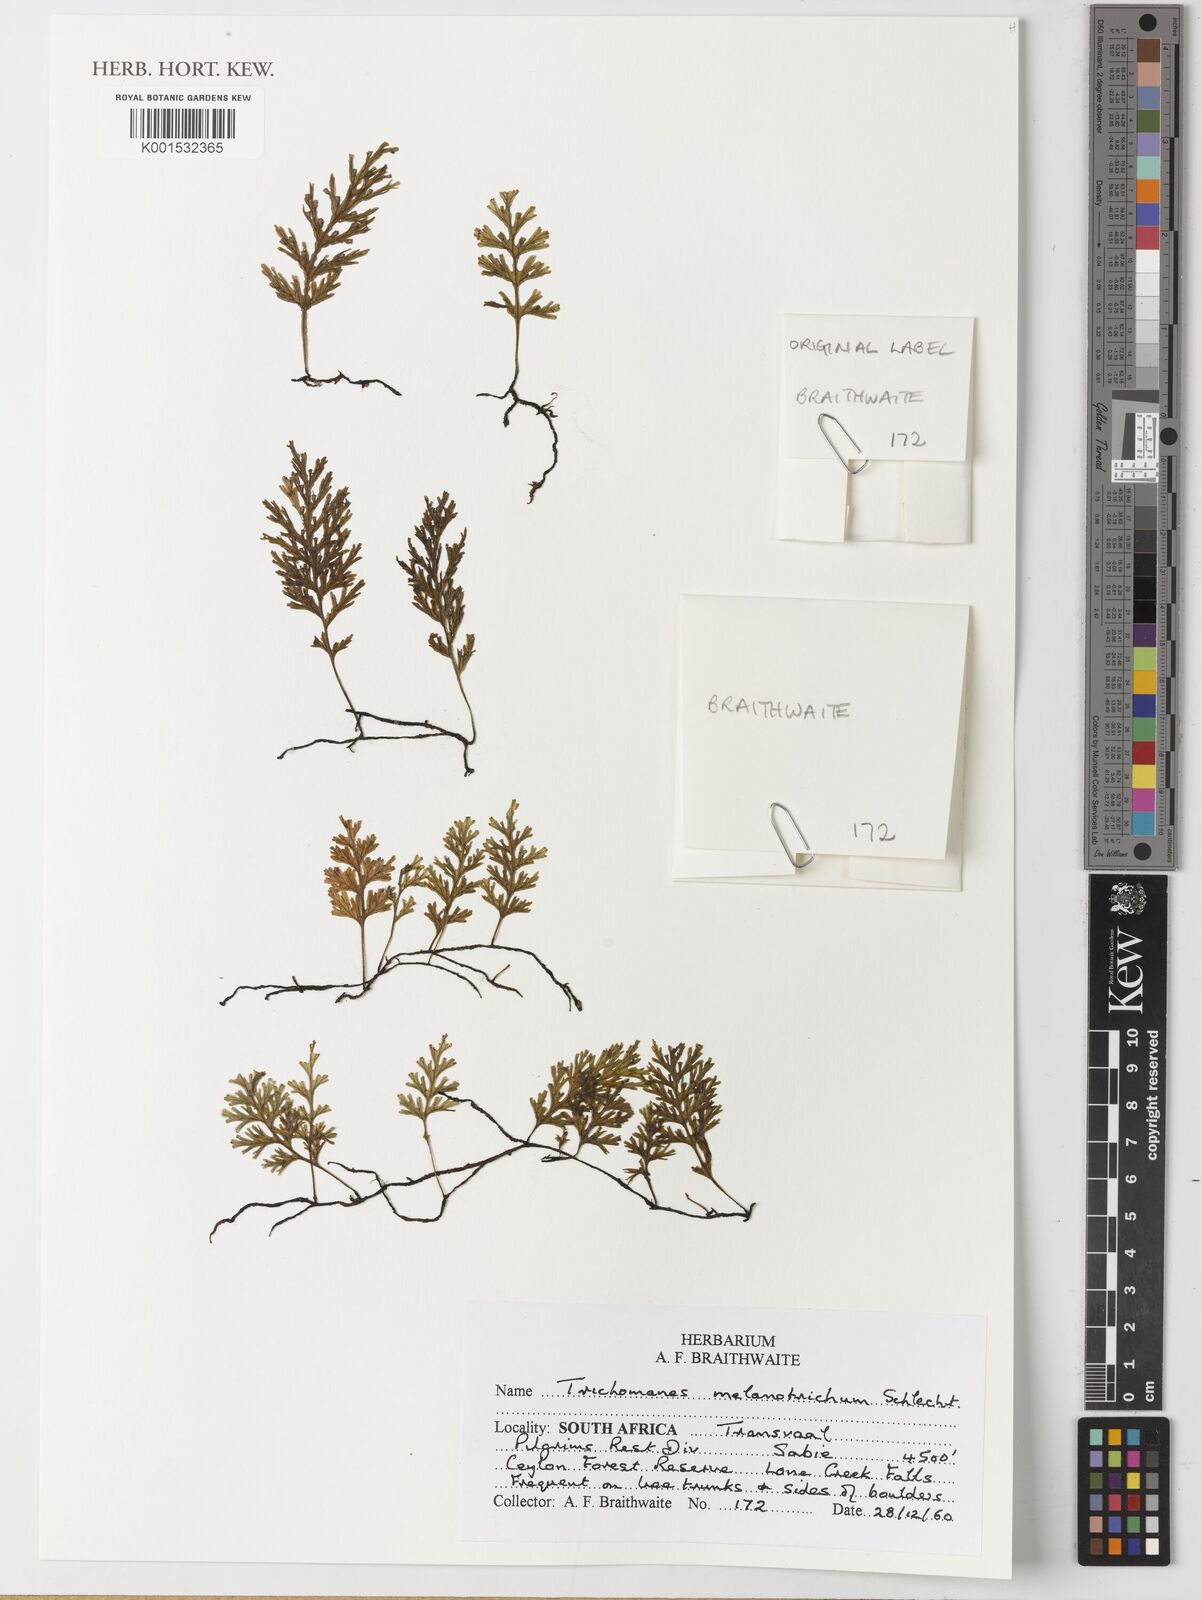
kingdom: Plantae
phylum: Tracheophyta
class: Polypodiopsida
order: Hymenophyllales
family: Hymenophyllaceae
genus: Crepidomanes
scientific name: Crepidomanes melanotrichum
